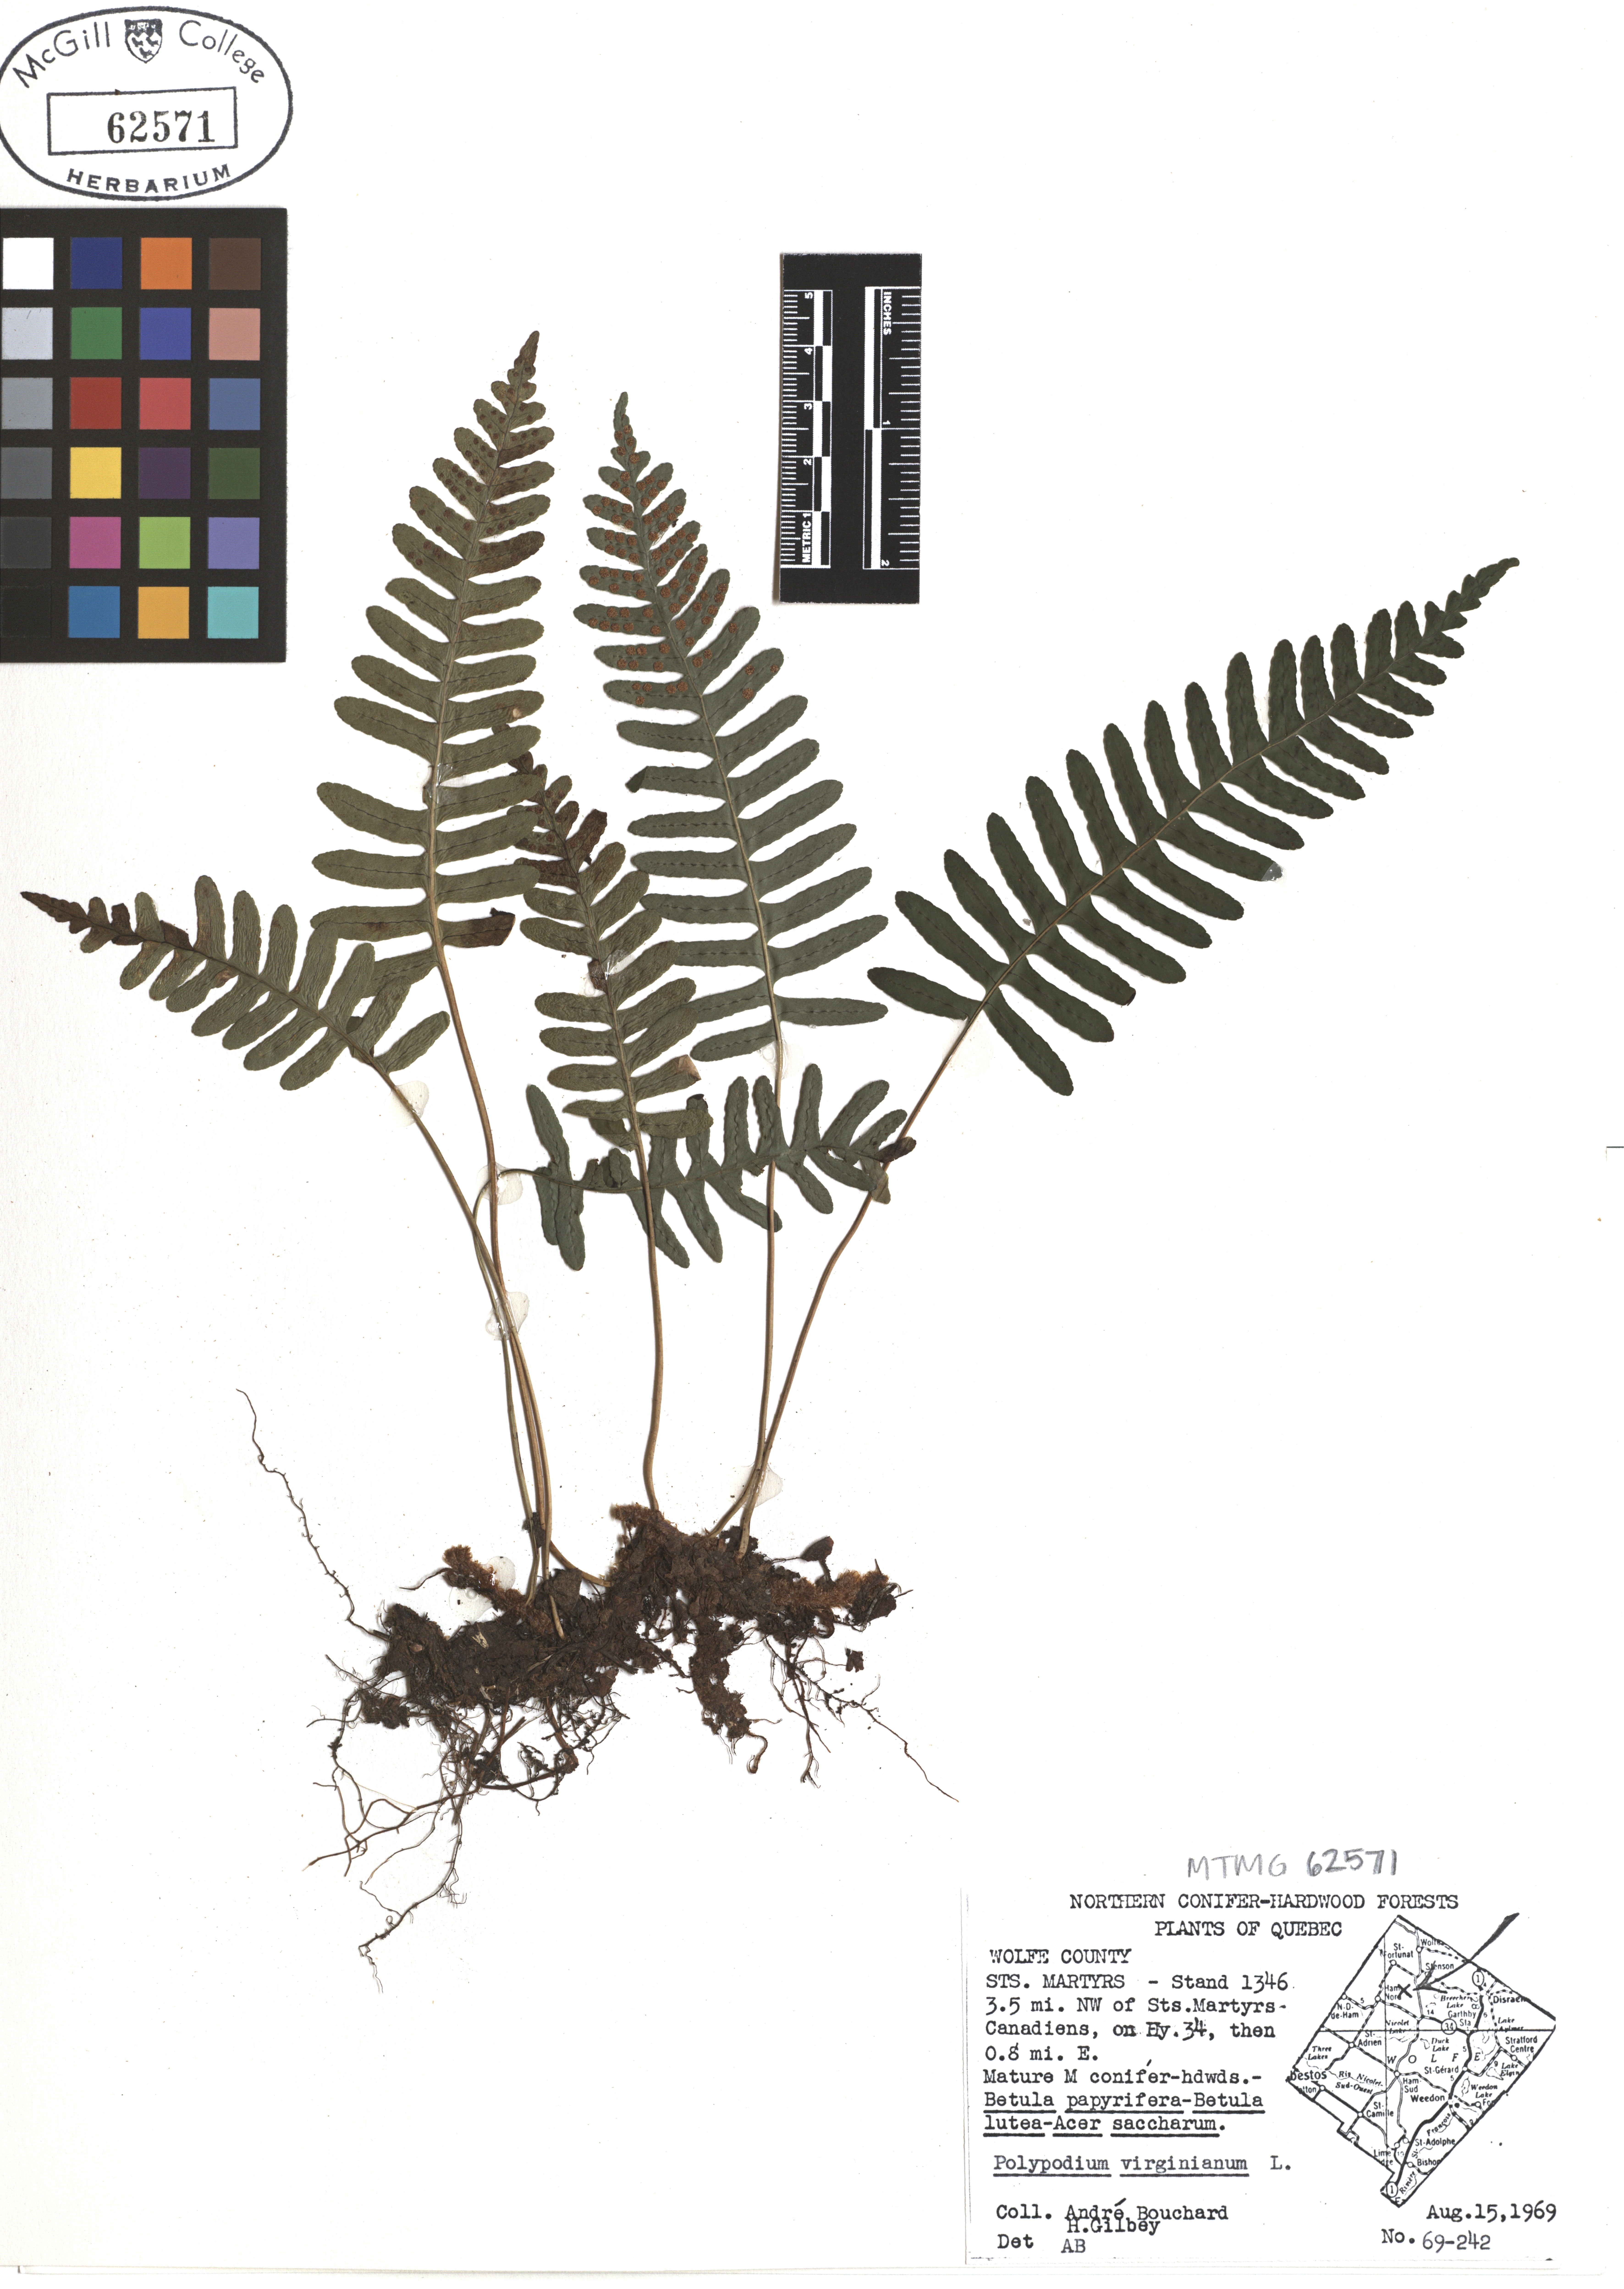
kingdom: Plantae
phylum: Tracheophyta
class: Polypodiopsida
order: Polypodiales
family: Polypodiaceae
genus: Polypodium
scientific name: Polypodium virginianum
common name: American wall fern
